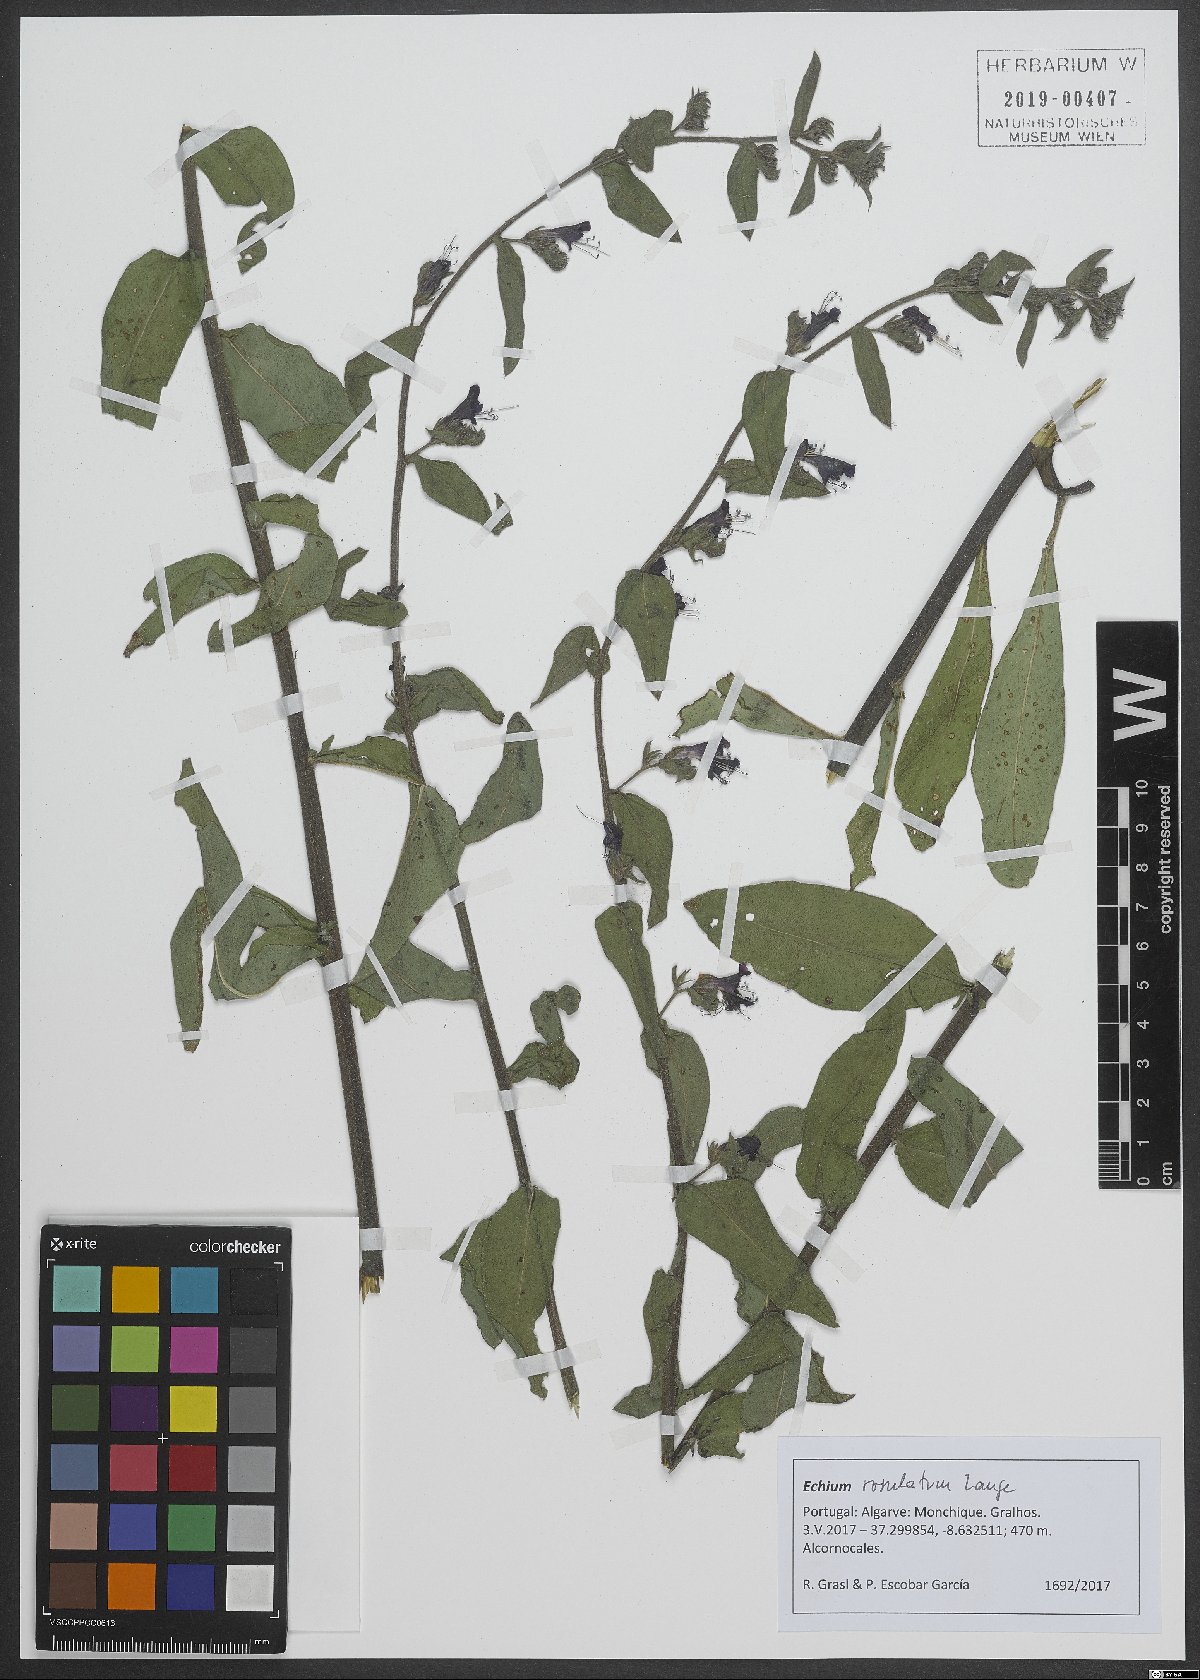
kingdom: Plantae
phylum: Tracheophyta
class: Magnoliopsida
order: Boraginales
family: Boraginaceae
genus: Echium
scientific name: Echium rosulatum
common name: Lax viper's-bugloss
